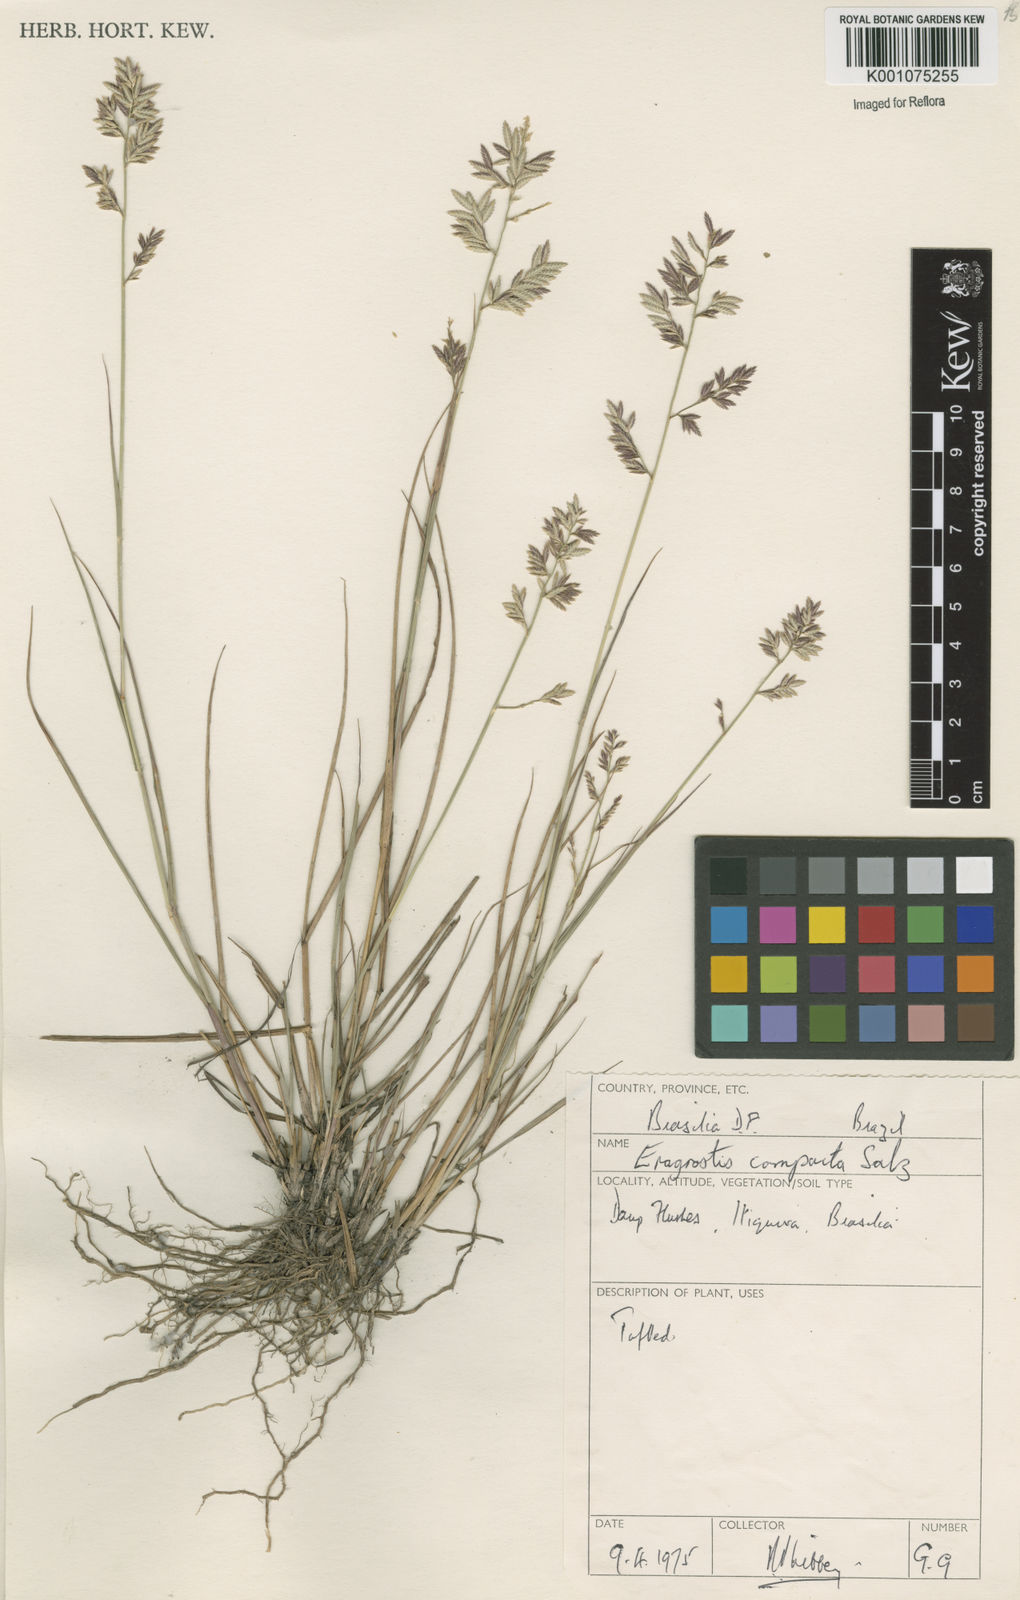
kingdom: Plantae
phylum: Tracheophyta
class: Liliopsida
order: Poales
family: Poaceae
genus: Eragrostis
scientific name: Eragrostis secundiflora
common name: Red love grass
